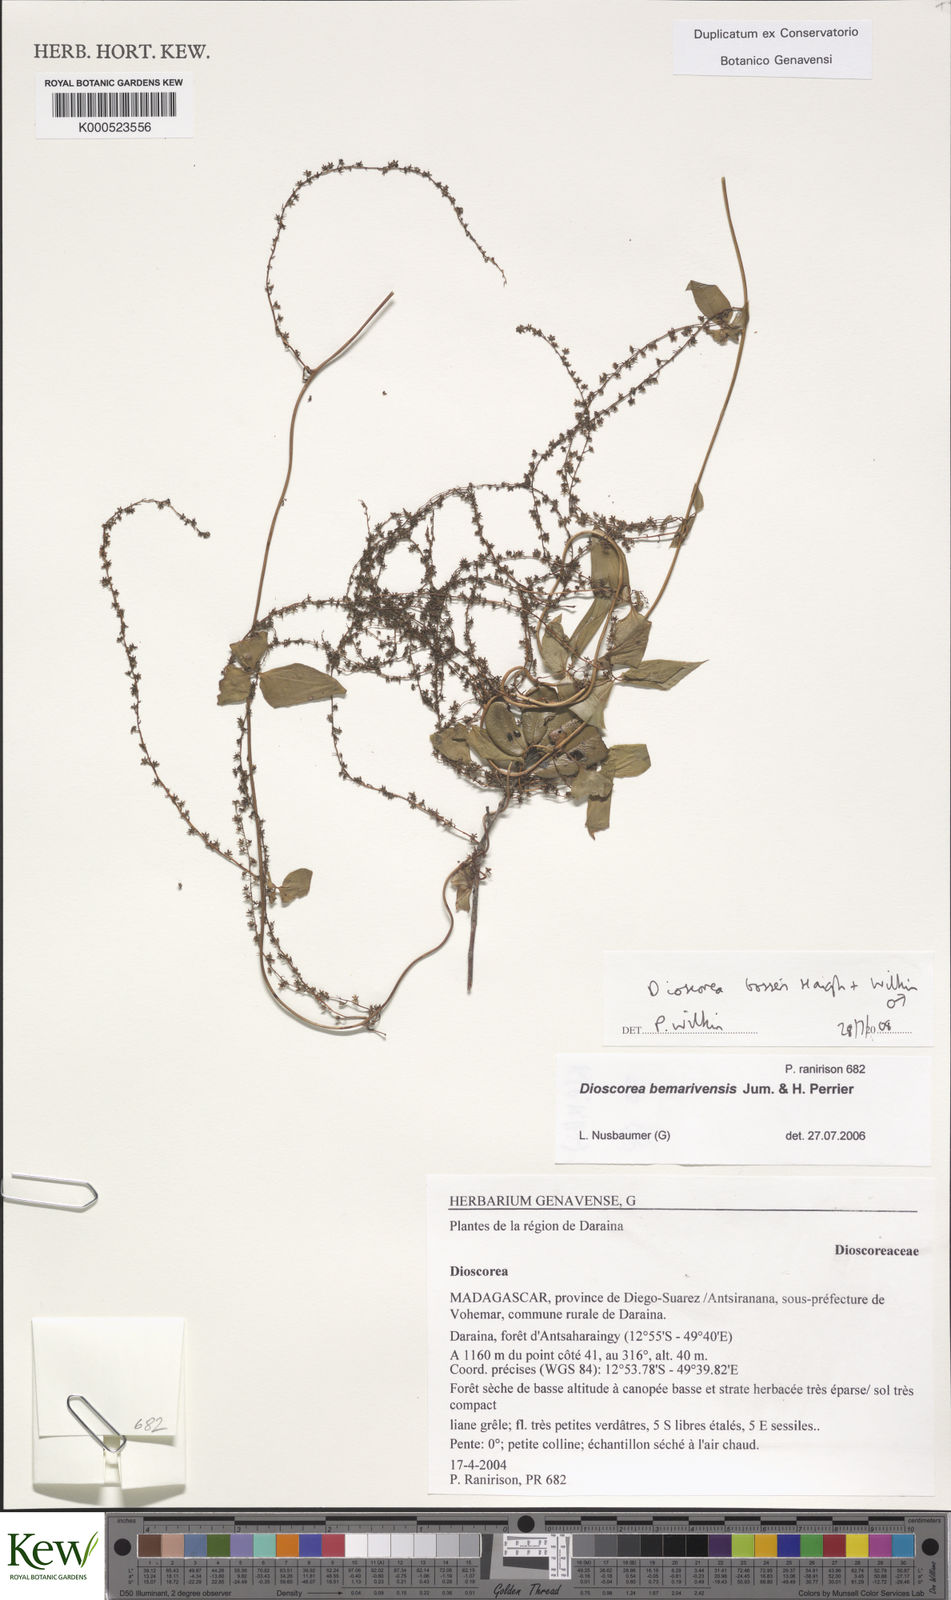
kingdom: Plantae
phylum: Tracheophyta
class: Liliopsida
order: Dioscoreales
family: Dioscoreaceae
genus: Dioscorea
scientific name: Dioscorea bosseri
